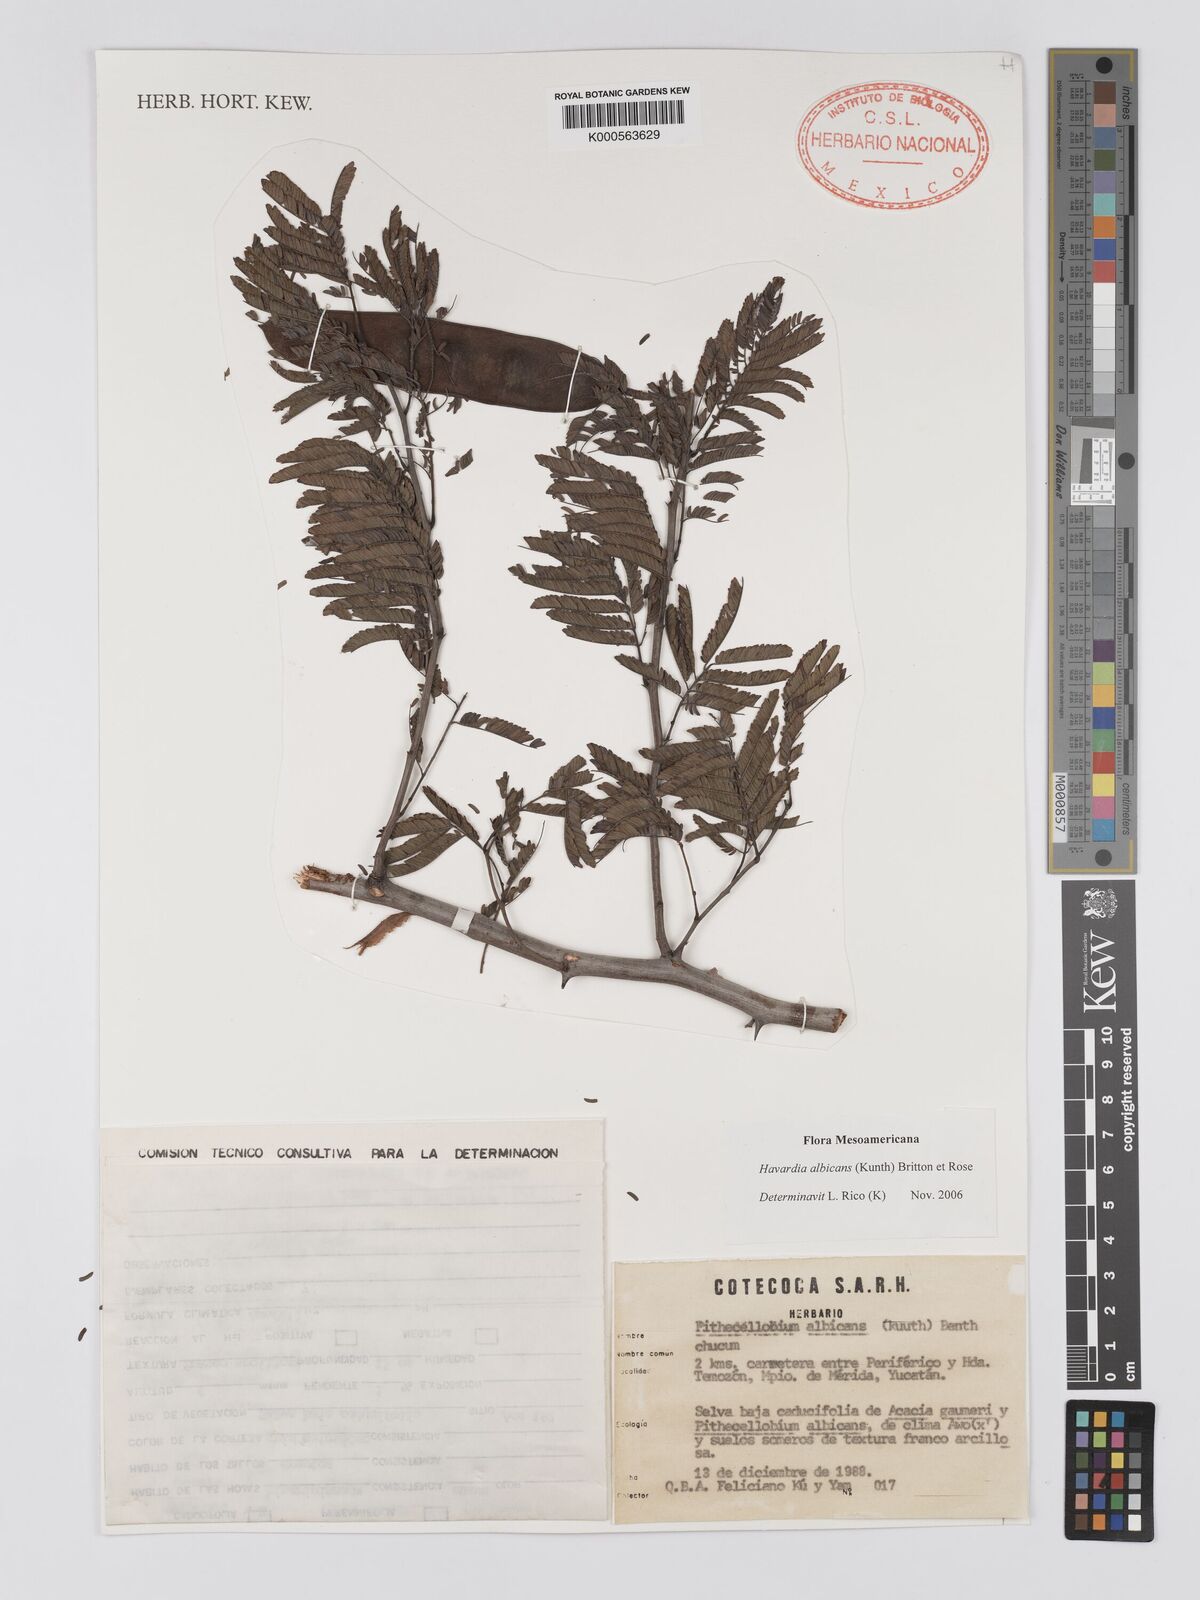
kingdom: Plantae
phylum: Tracheophyta
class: Magnoliopsida
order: Fabales
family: Fabaceae
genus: Havardia
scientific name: Havardia pallens
